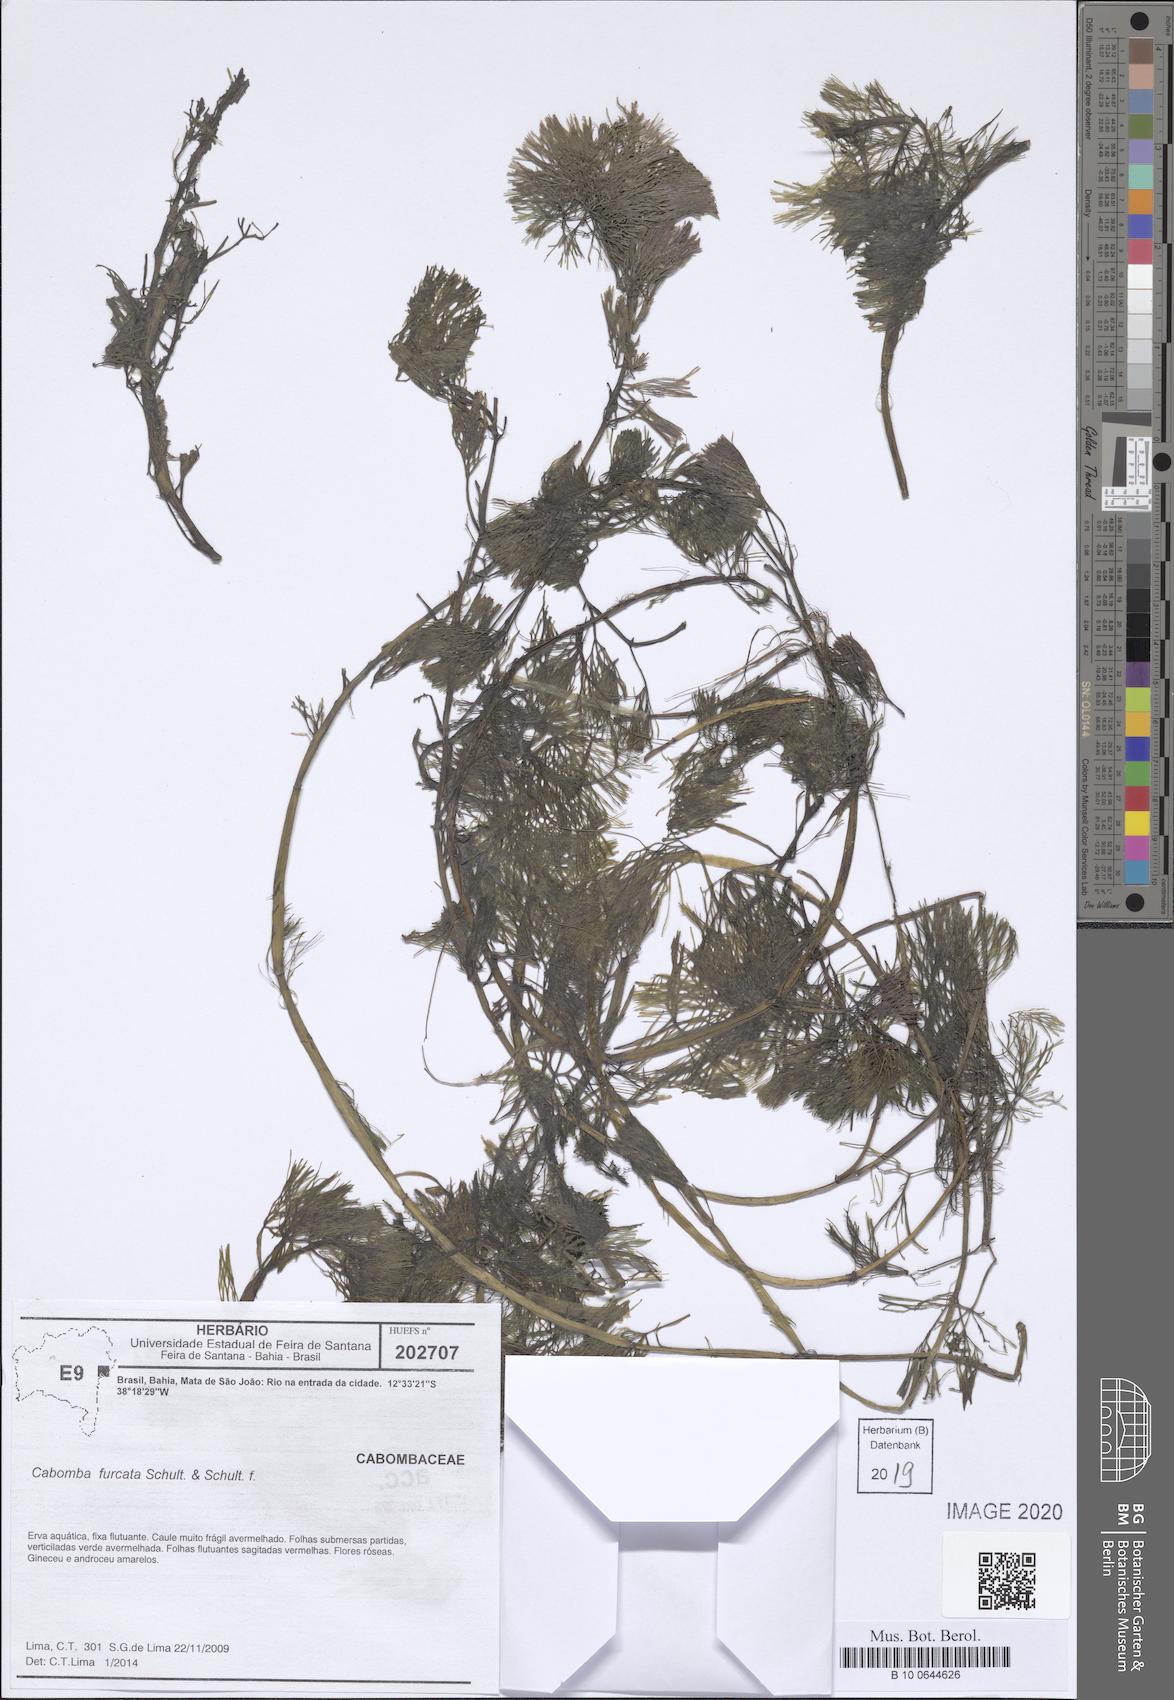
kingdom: Plantae
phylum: Tracheophyta
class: Magnoliopsida
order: Nymphaeales
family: Cabombaceae
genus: Cabomba
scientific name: Cabomba furcata
